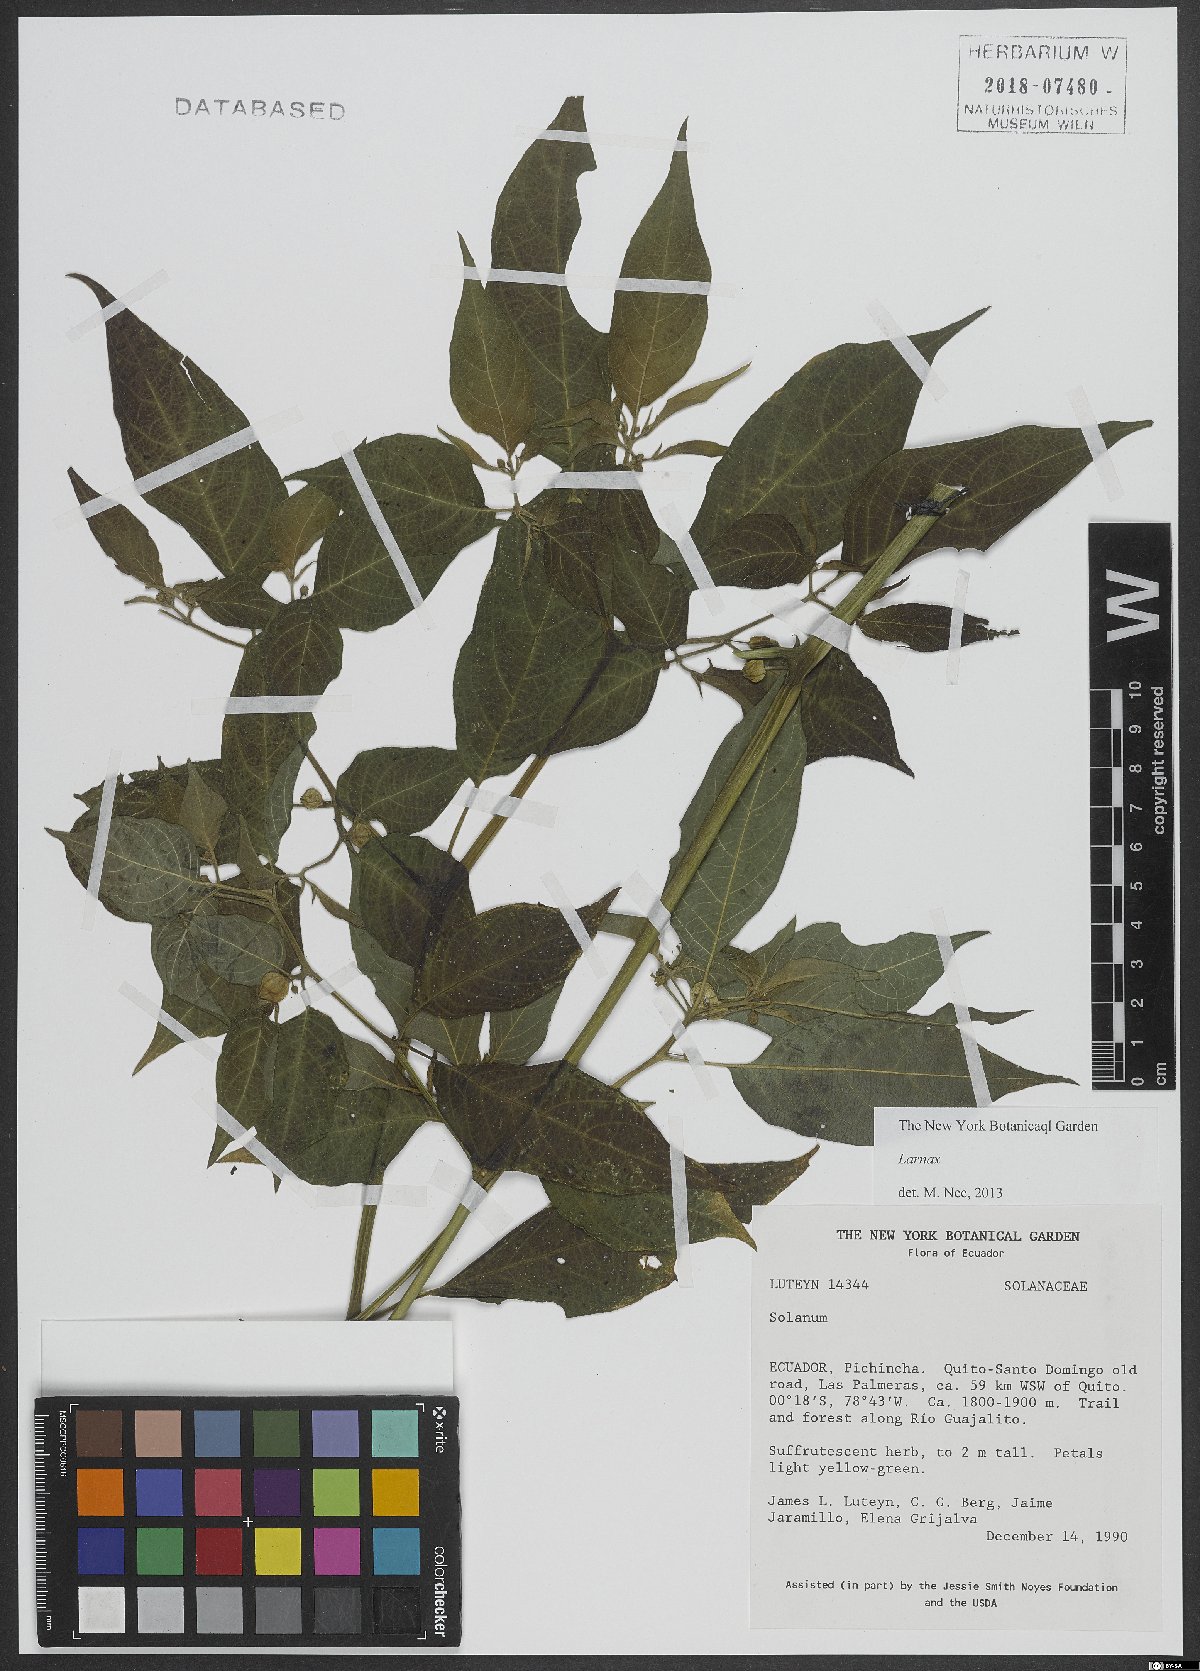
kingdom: Plantae
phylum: Tracheophyta
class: Magnoliopsida
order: Solanales
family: Solanaceae
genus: Deprea
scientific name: Deprea
